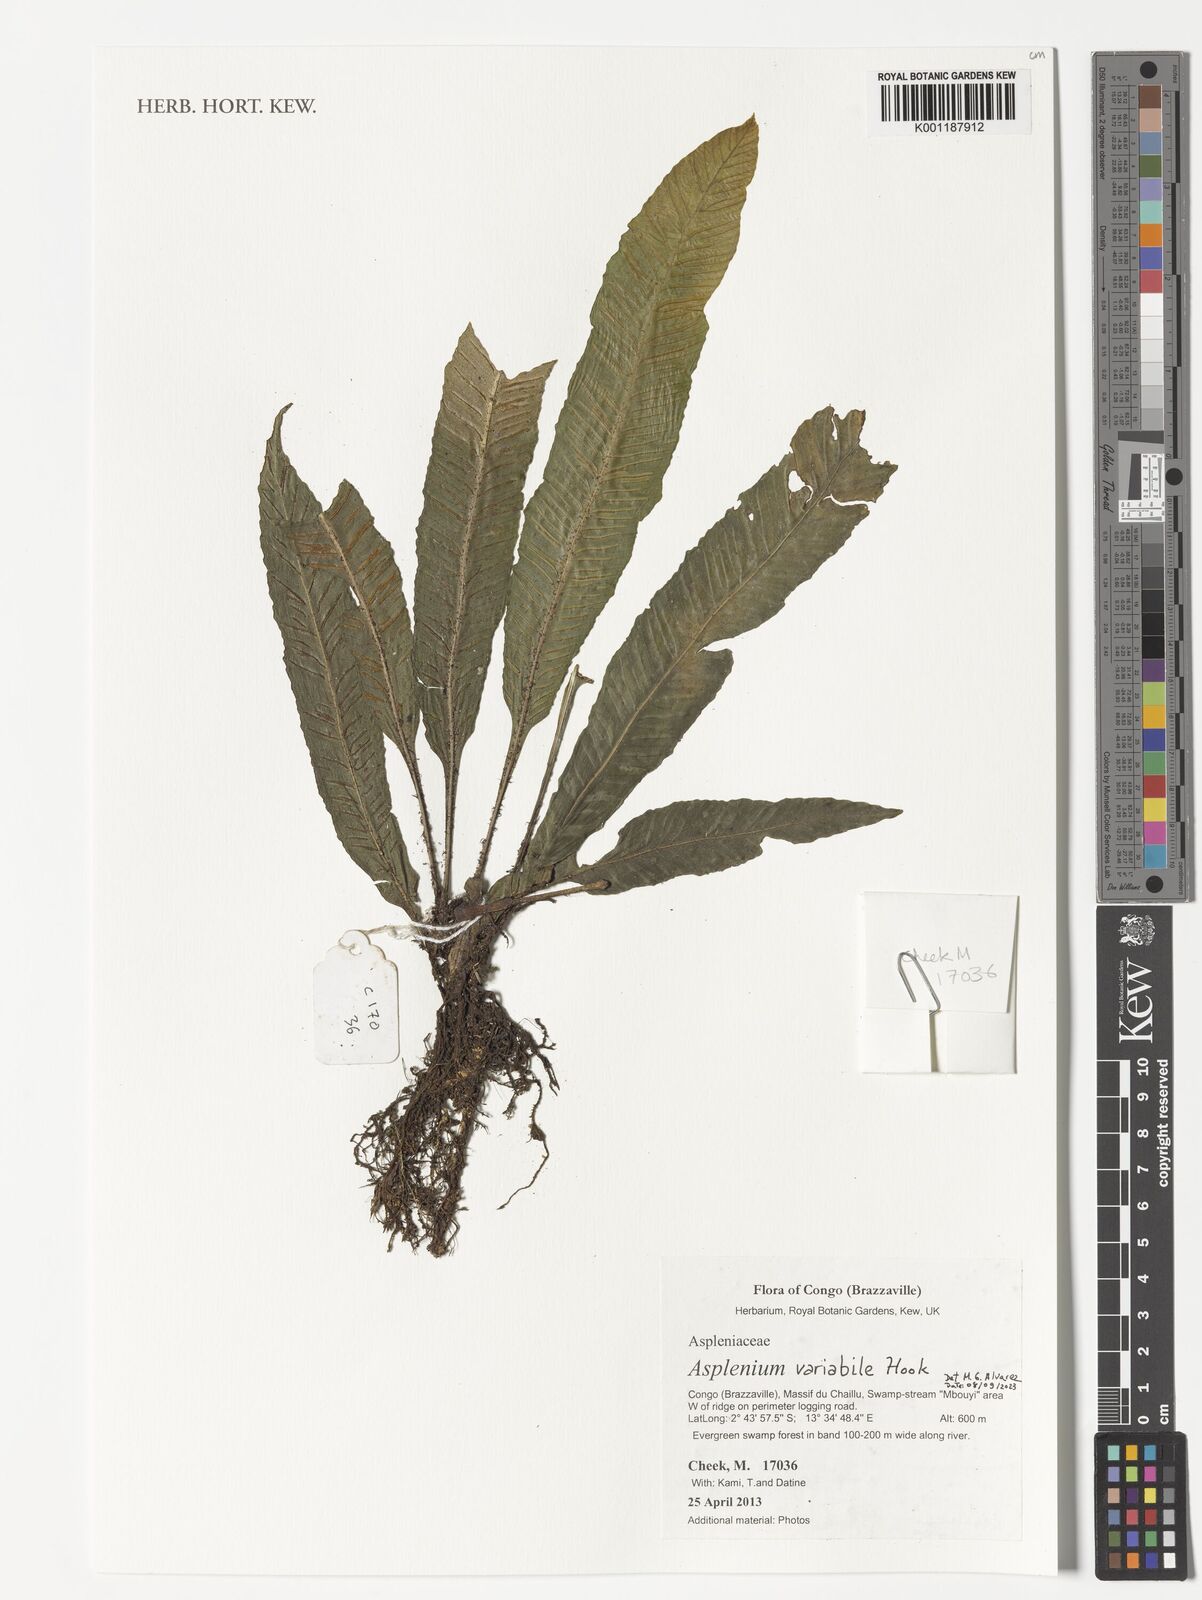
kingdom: Plantae
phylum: Tracheophyta
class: Polypodiopsida
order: Polypodiales
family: Aspleniaceae
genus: Asplenium
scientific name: Asplenium variabile
